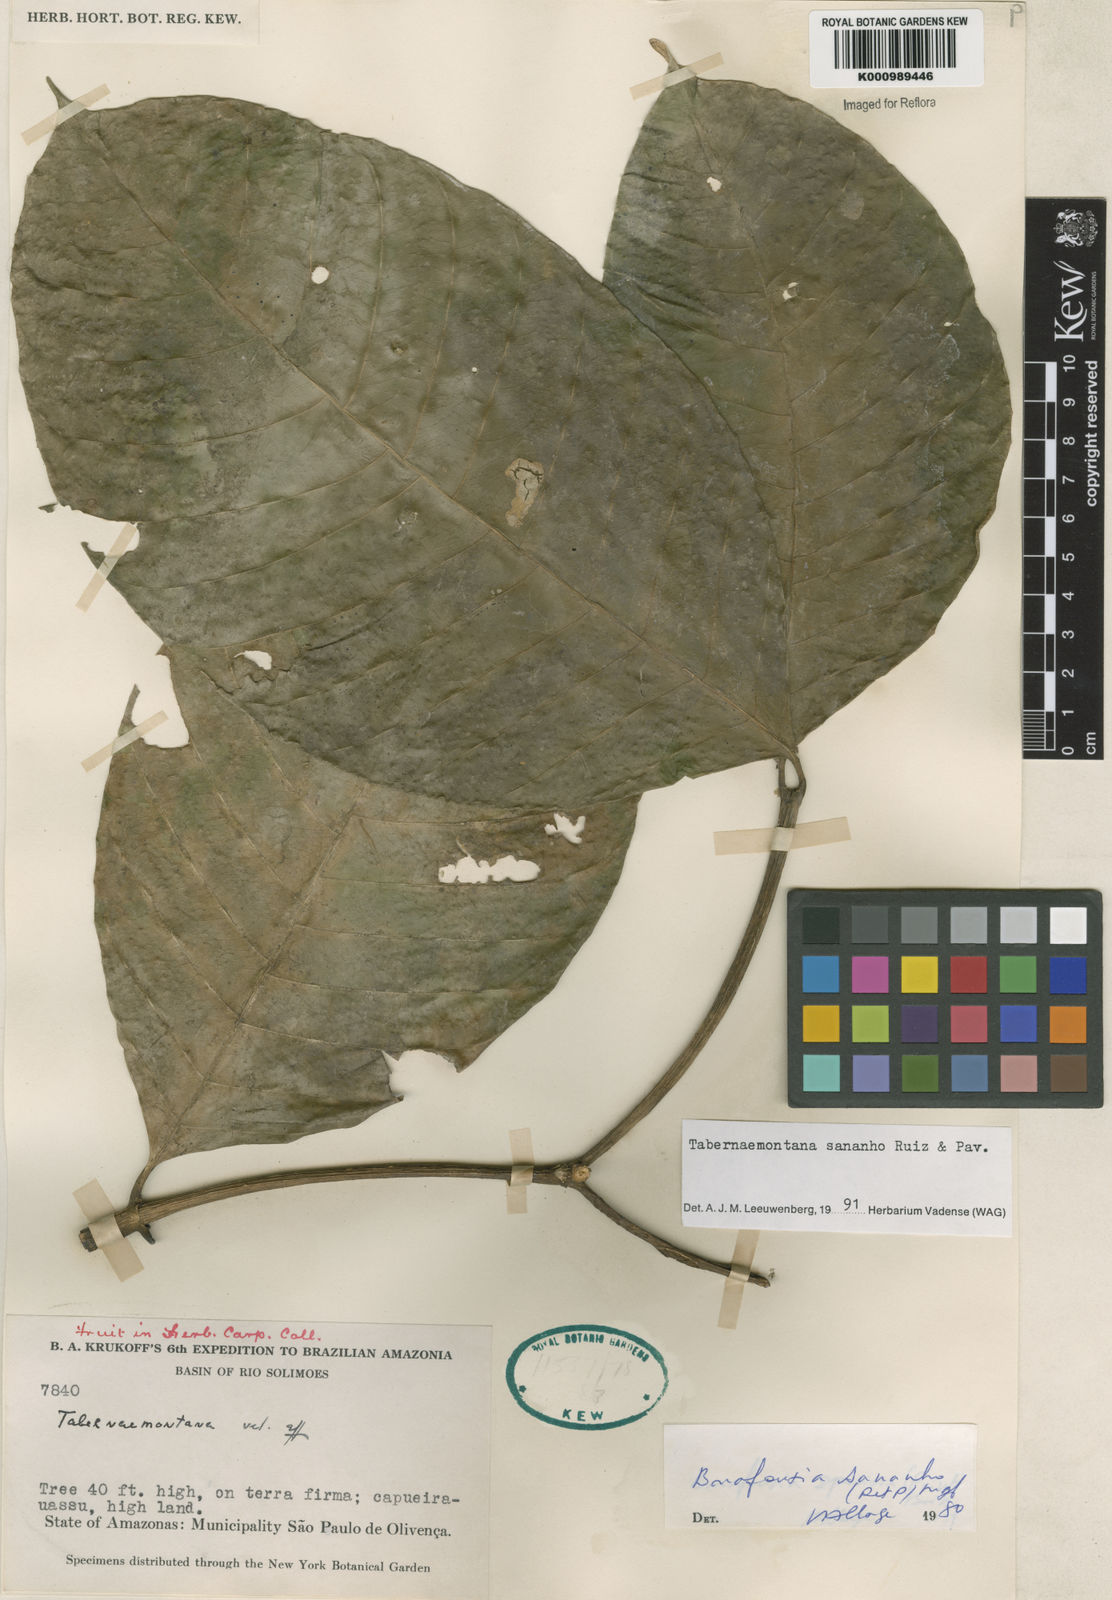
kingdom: Plantae
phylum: Tracheophyta
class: Magnoliopsida
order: Gentianales
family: Apocynaceae
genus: Tabernaemontana
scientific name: Tabernaemontana sananho
